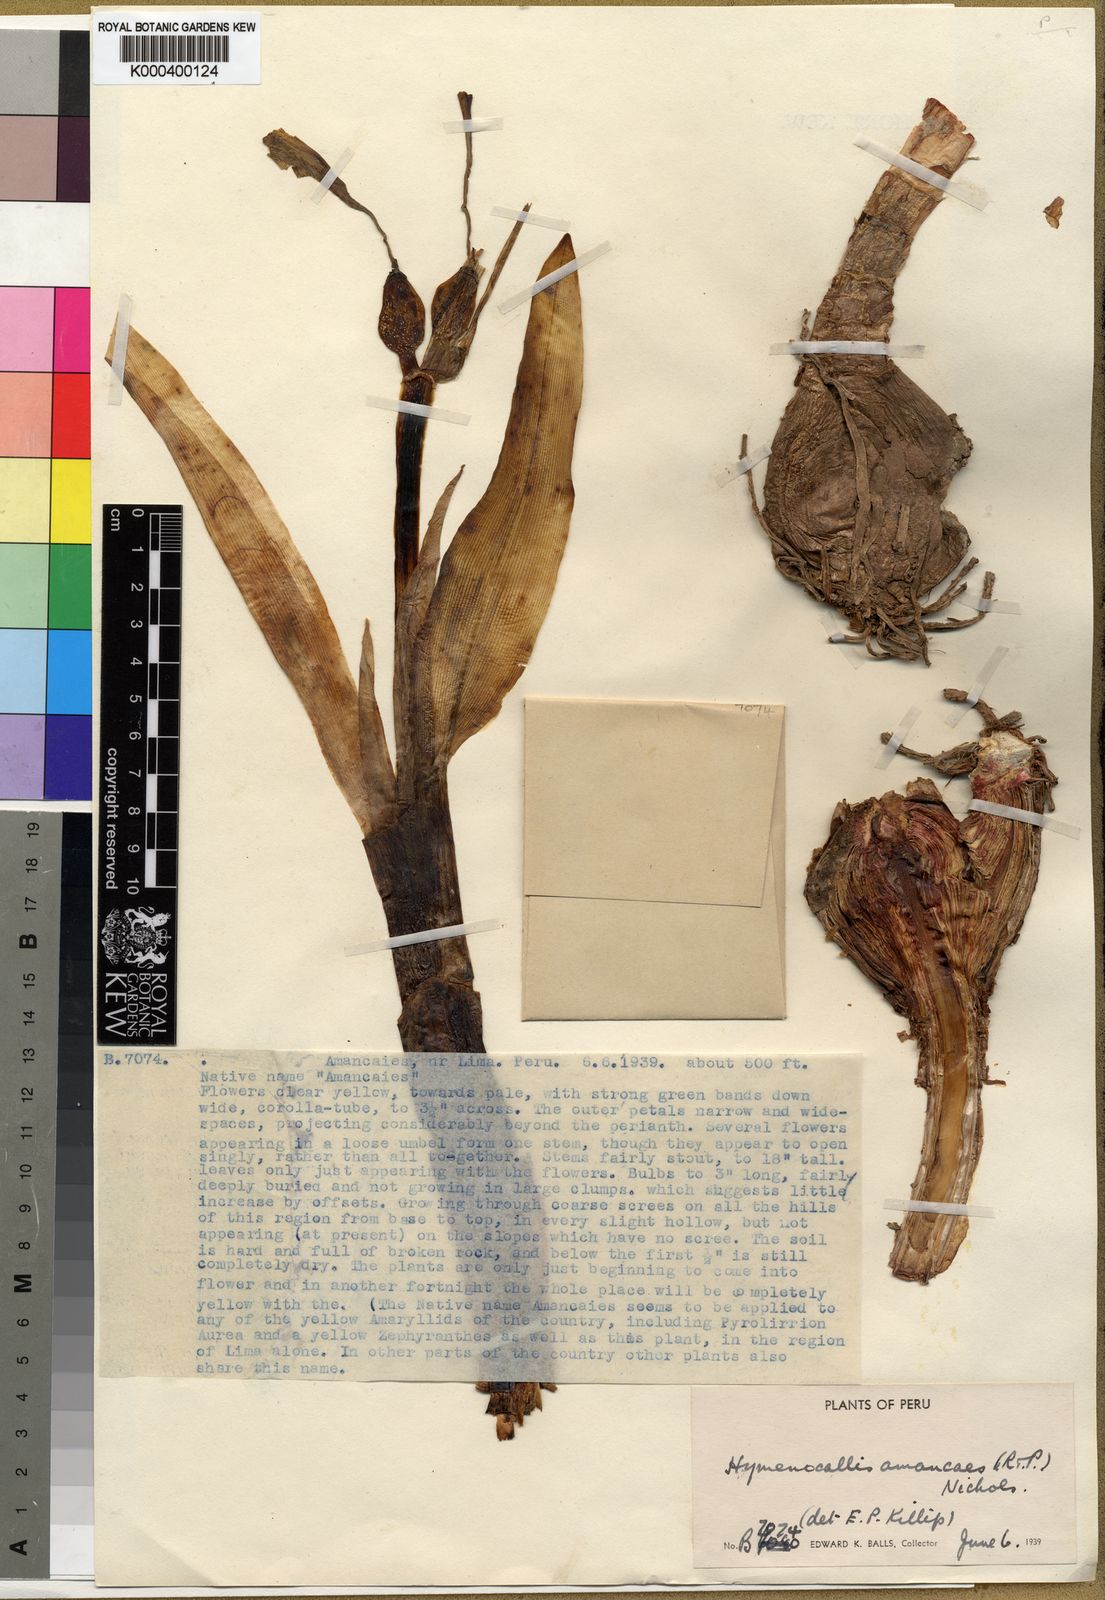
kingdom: Plantae
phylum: Tracheophyta
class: Liliopsida
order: Asparagales
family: Amaryllidaceae
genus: Ismene
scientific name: Ismene amancaes
